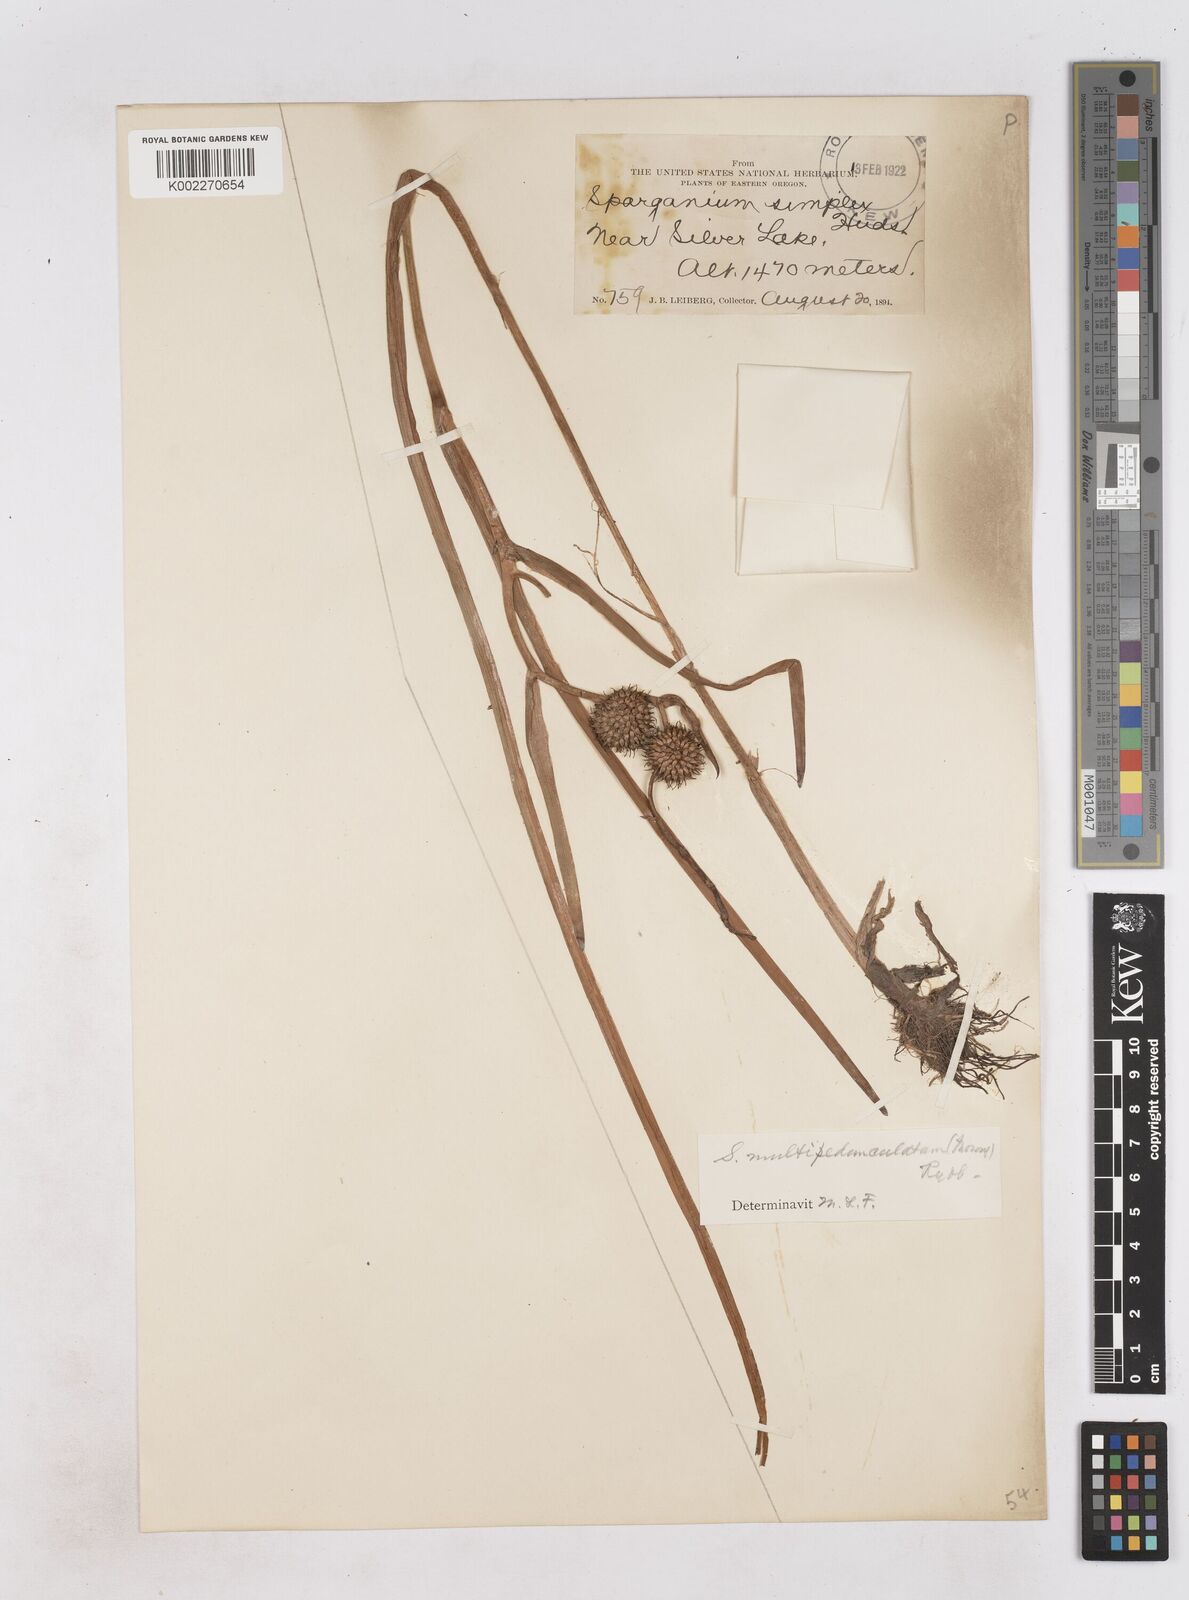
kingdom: Plantae
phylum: Tracheophyta
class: Liliopsida
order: Poales
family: Typhaceae
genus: Sparganium
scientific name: Sparganium emersum
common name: Unbranched bur-reed
